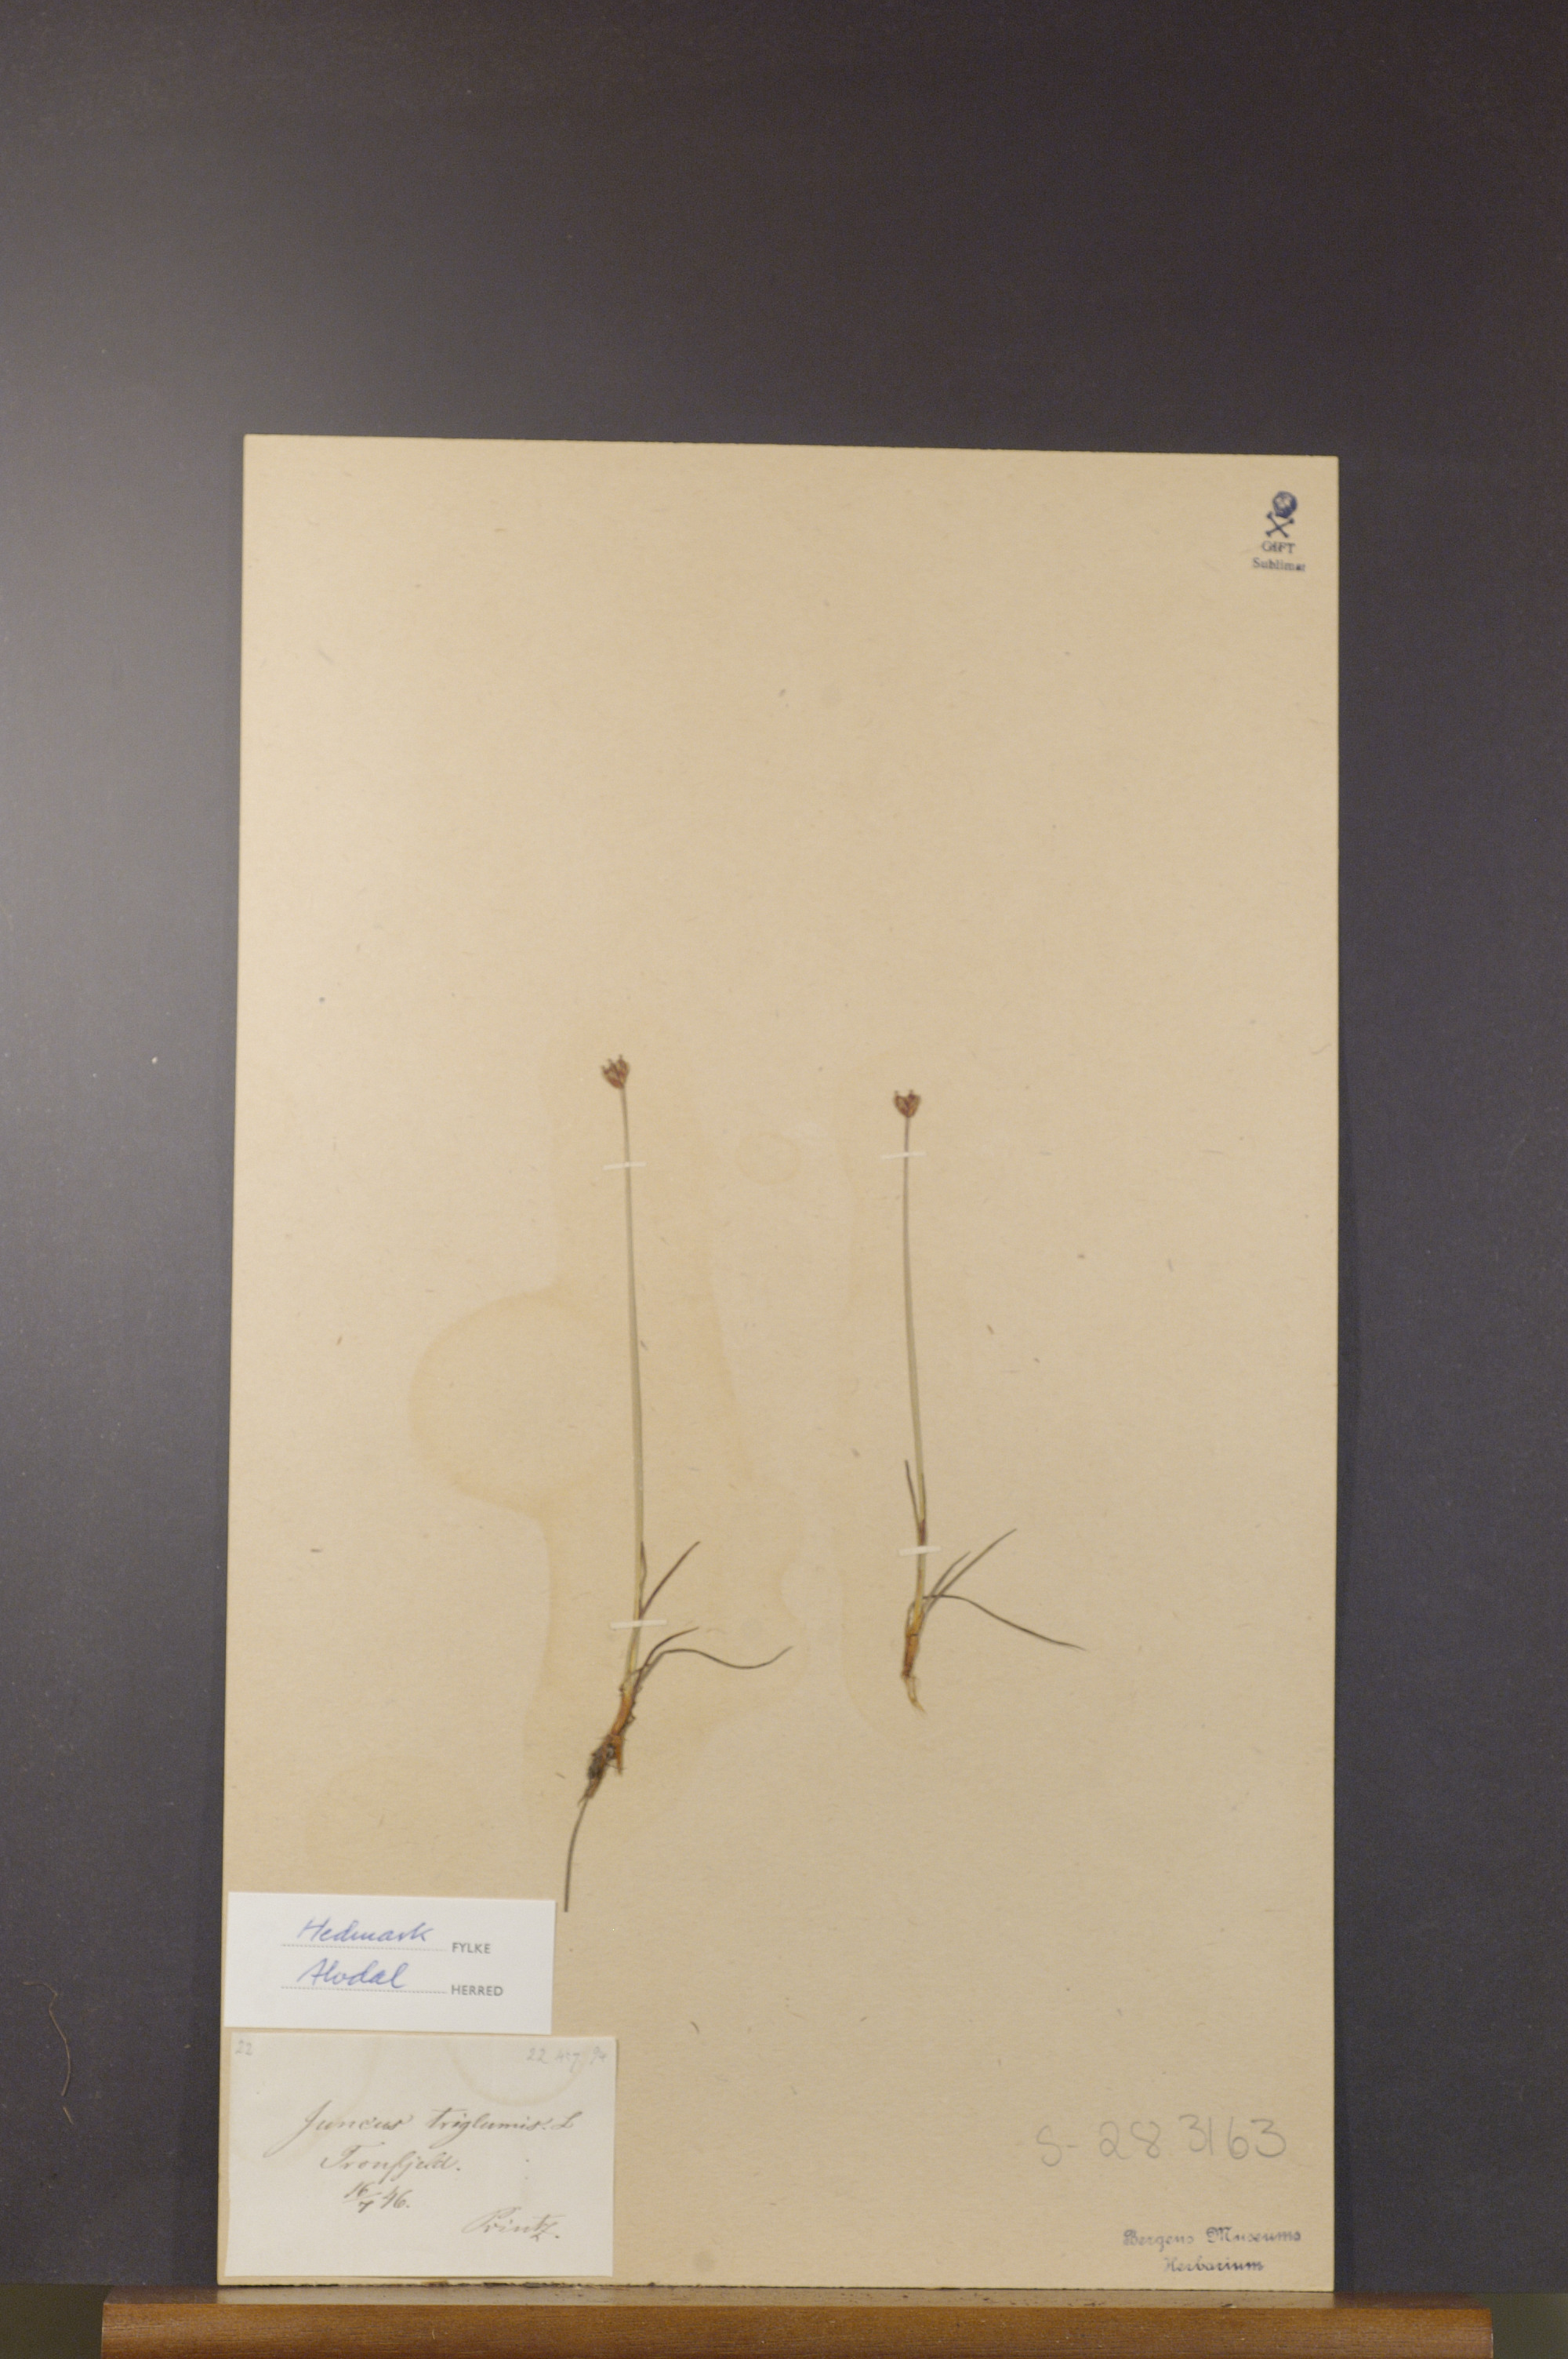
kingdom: Plantae
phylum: Tracheophyta
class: Liliopsida
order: Poales
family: Juncaceae
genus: Juncus
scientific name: Juncus triglumis
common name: Three-flowered rush
